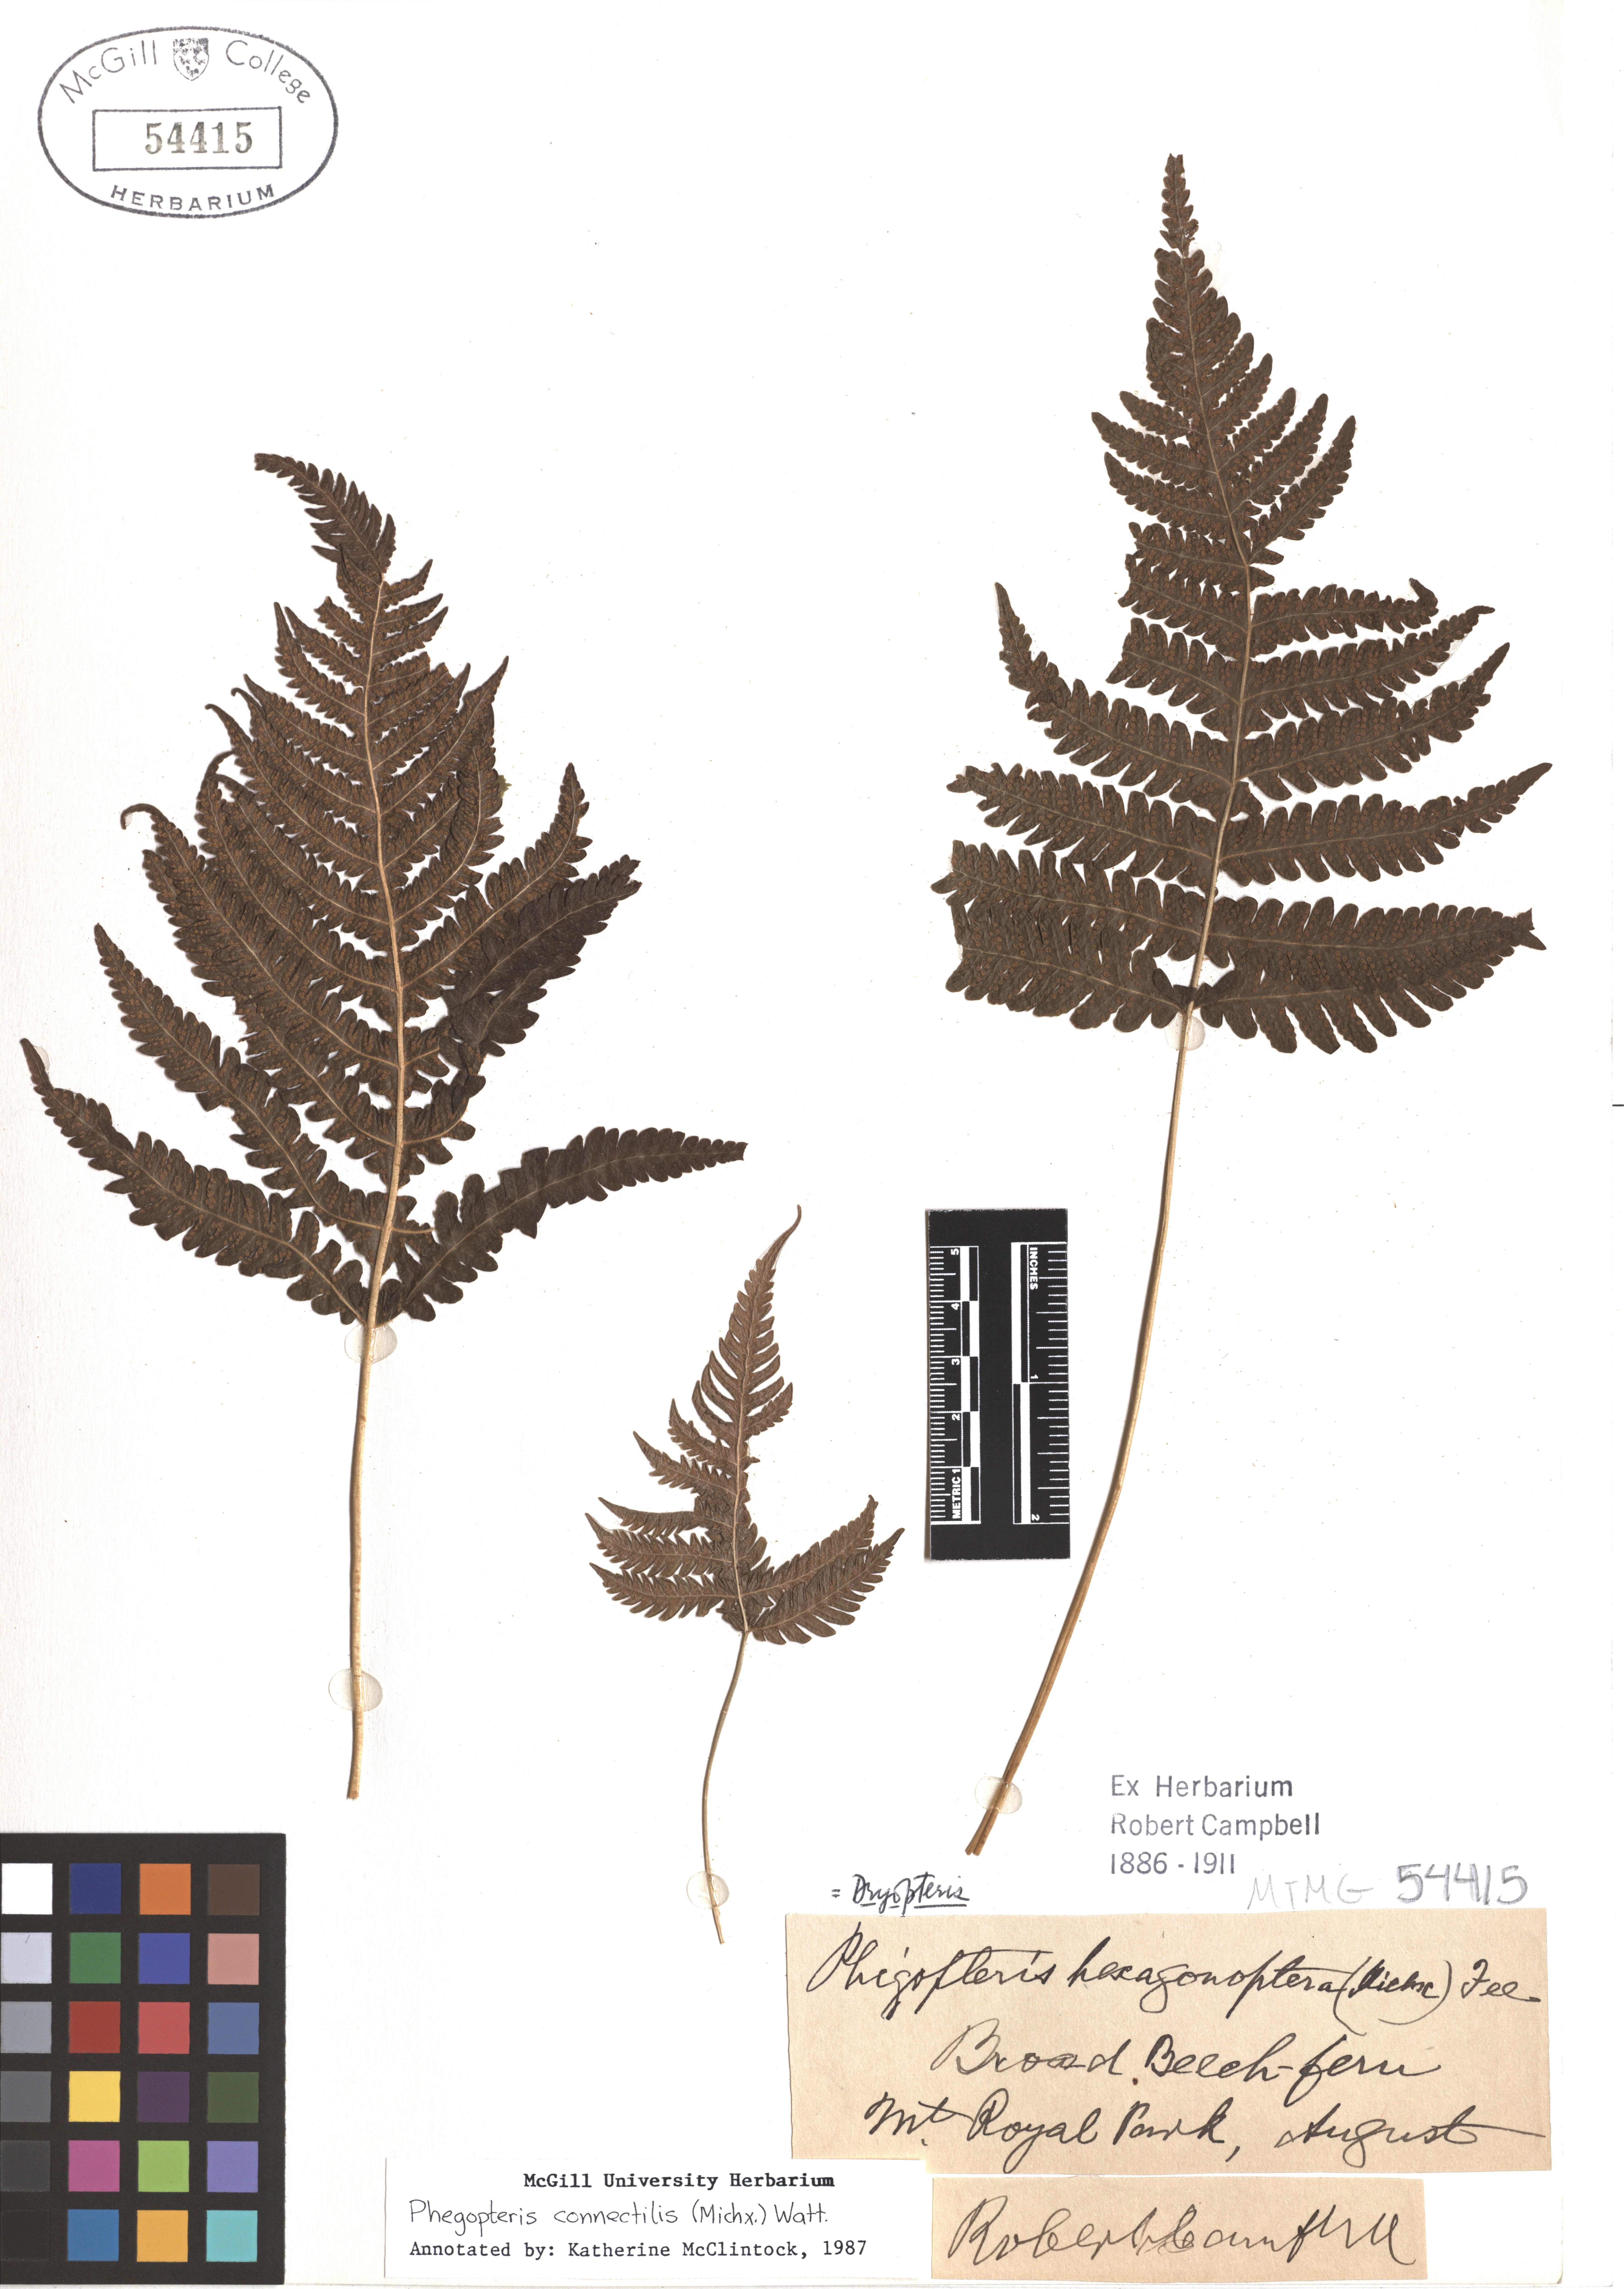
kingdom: Plantae
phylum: Tracheophyta
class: Polypodiopsida
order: Polypodiales
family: Thelypteridaceae
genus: Phegopteris
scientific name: Phegopteris connectilis
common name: Beech fern
